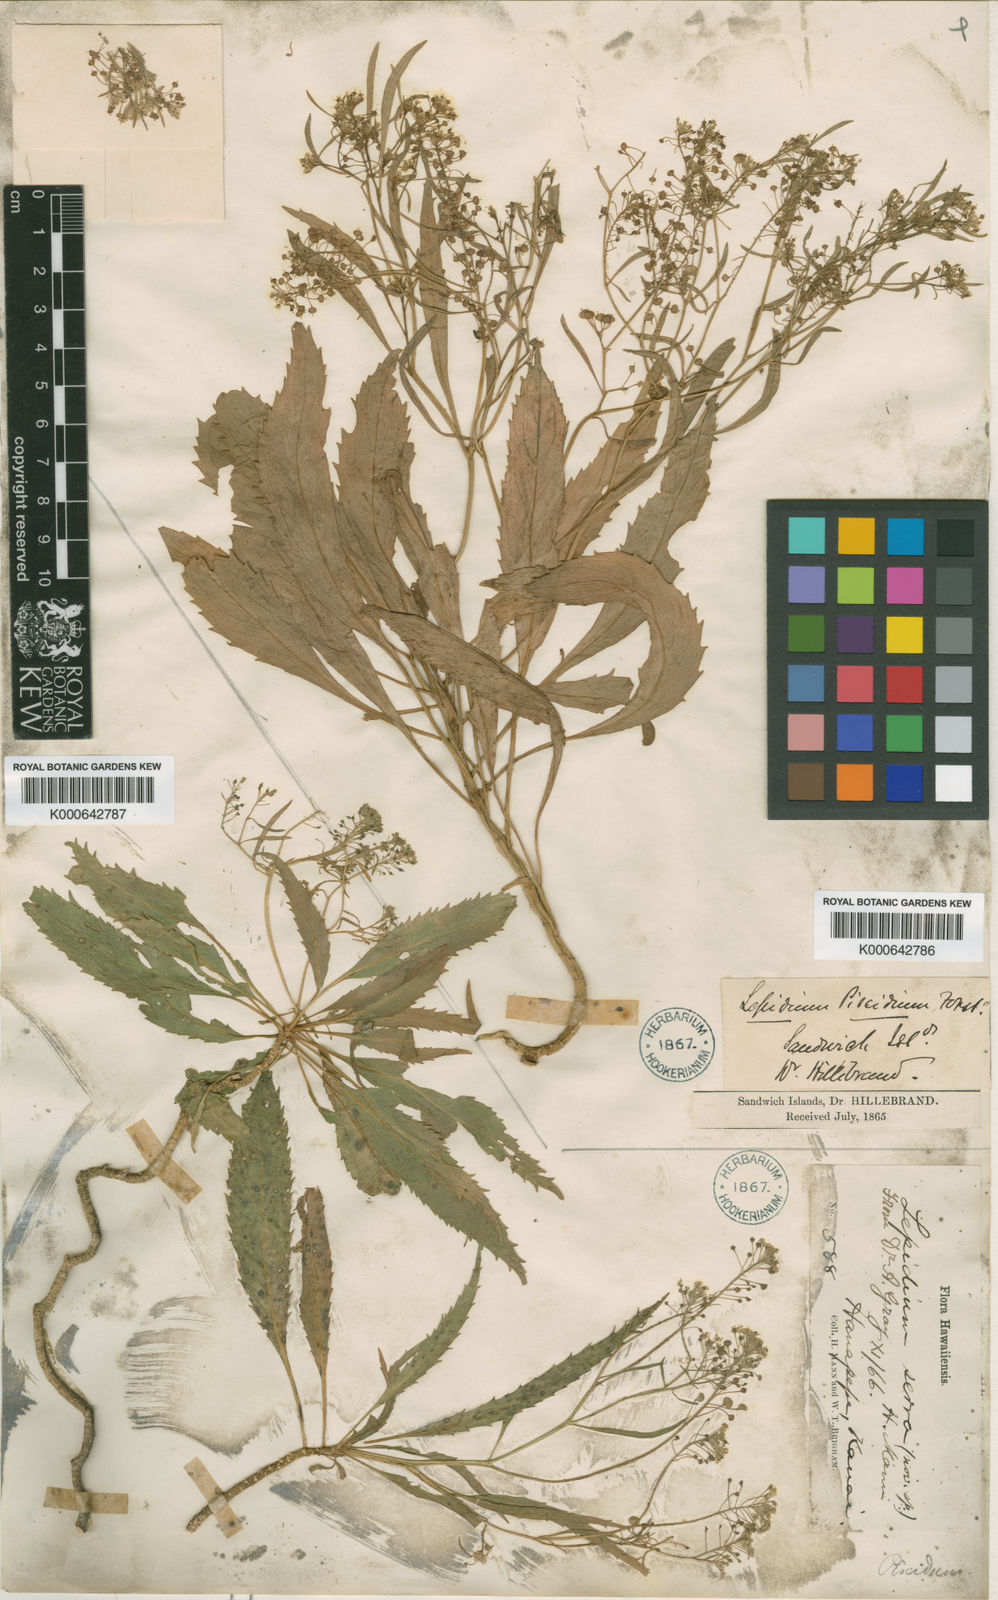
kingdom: Plantae
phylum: Tracheophyta
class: Magnoliopsida
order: Brassicales
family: Brassicaceae
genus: Lepidium
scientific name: Lepidium serra
